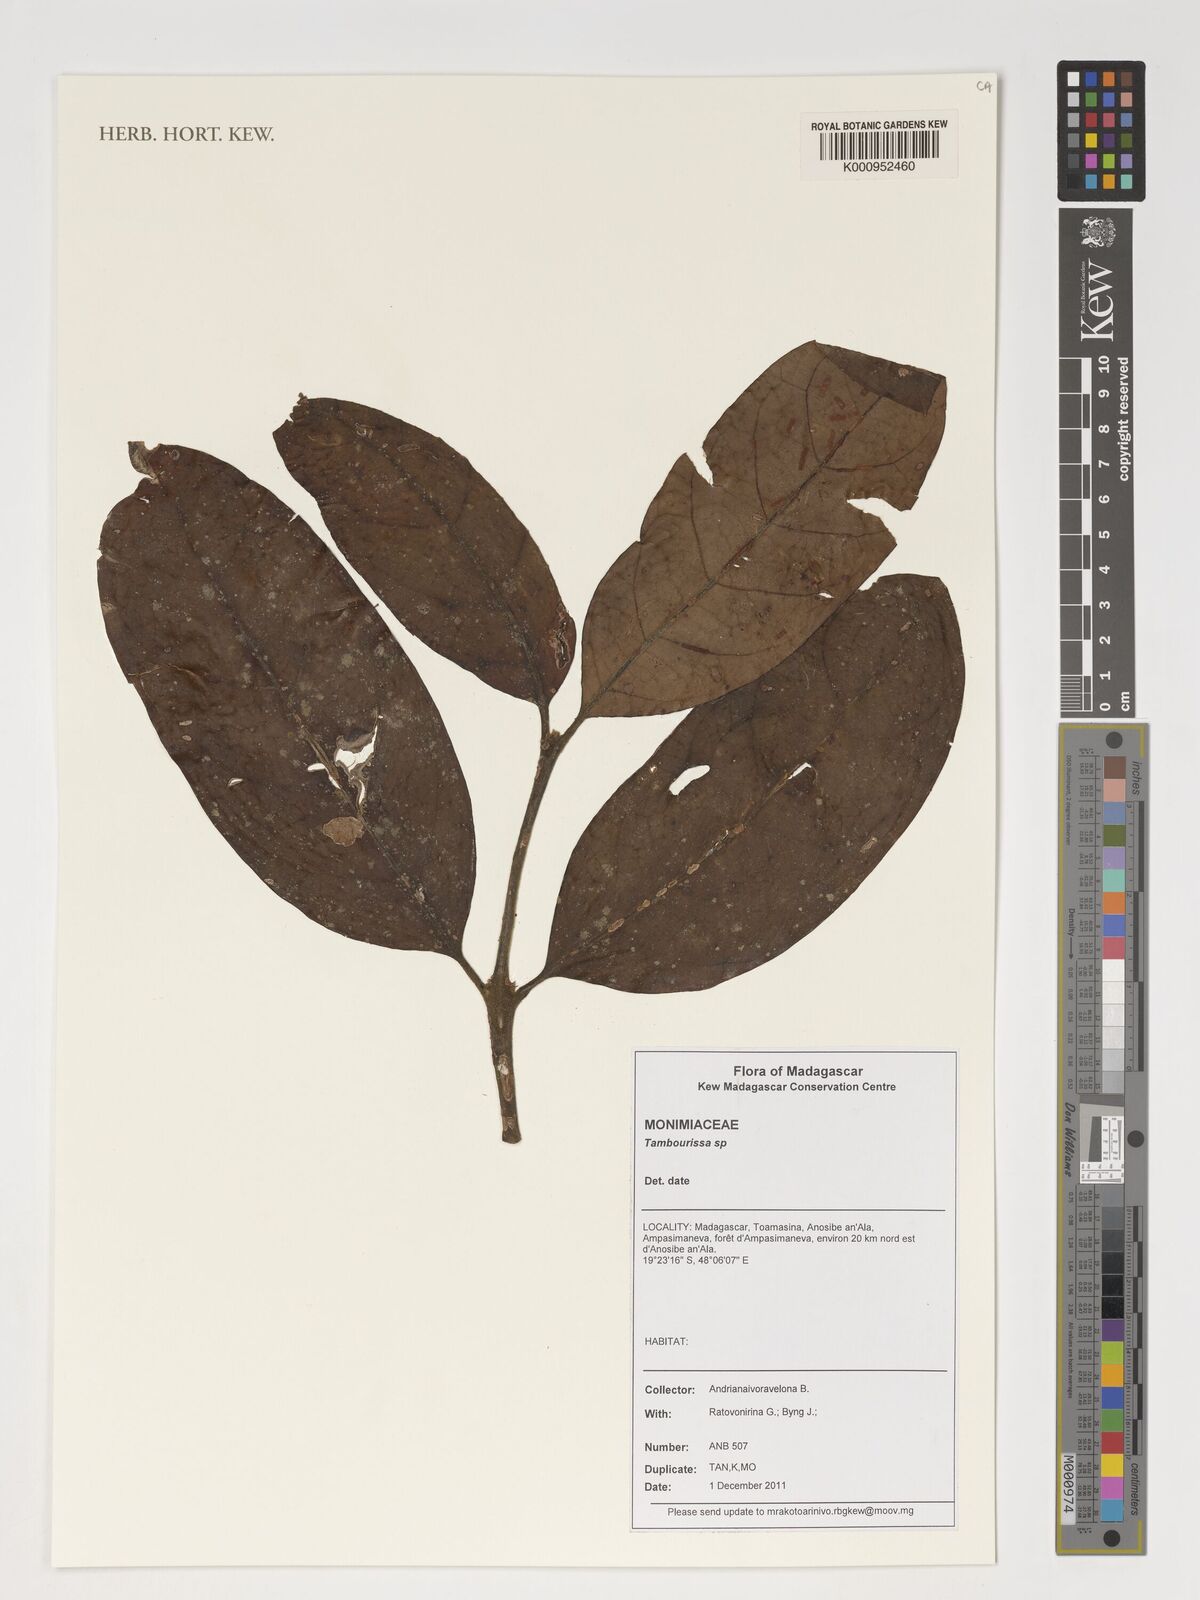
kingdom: Plantae
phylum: Tracheophyta
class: Magnoliopsida
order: Laurales
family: Monimiaceae
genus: Tambourissa
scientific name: Tambourissa
